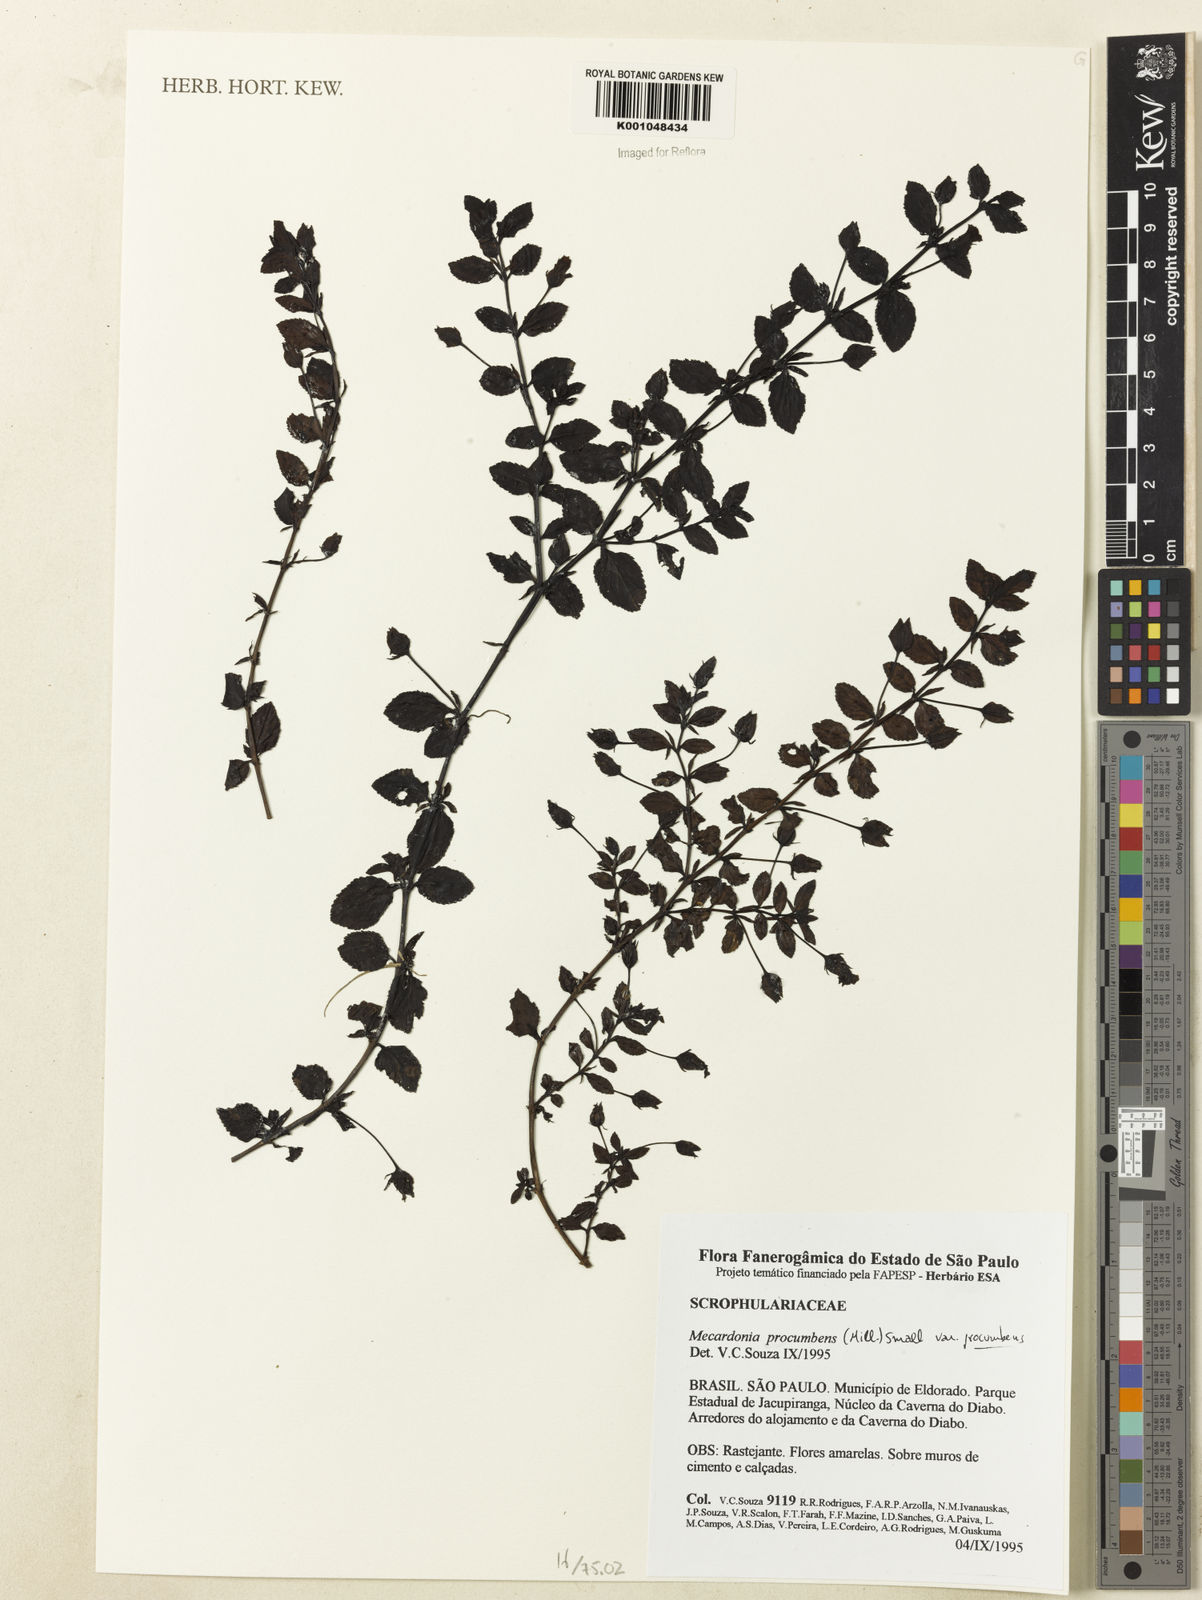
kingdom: Plantae
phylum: Tracheophyta
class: Magnoliopsida
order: Lamiales
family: Plantaginaceae
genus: Mecardonia
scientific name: Mecardonia procumbens
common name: Baby jump-up
